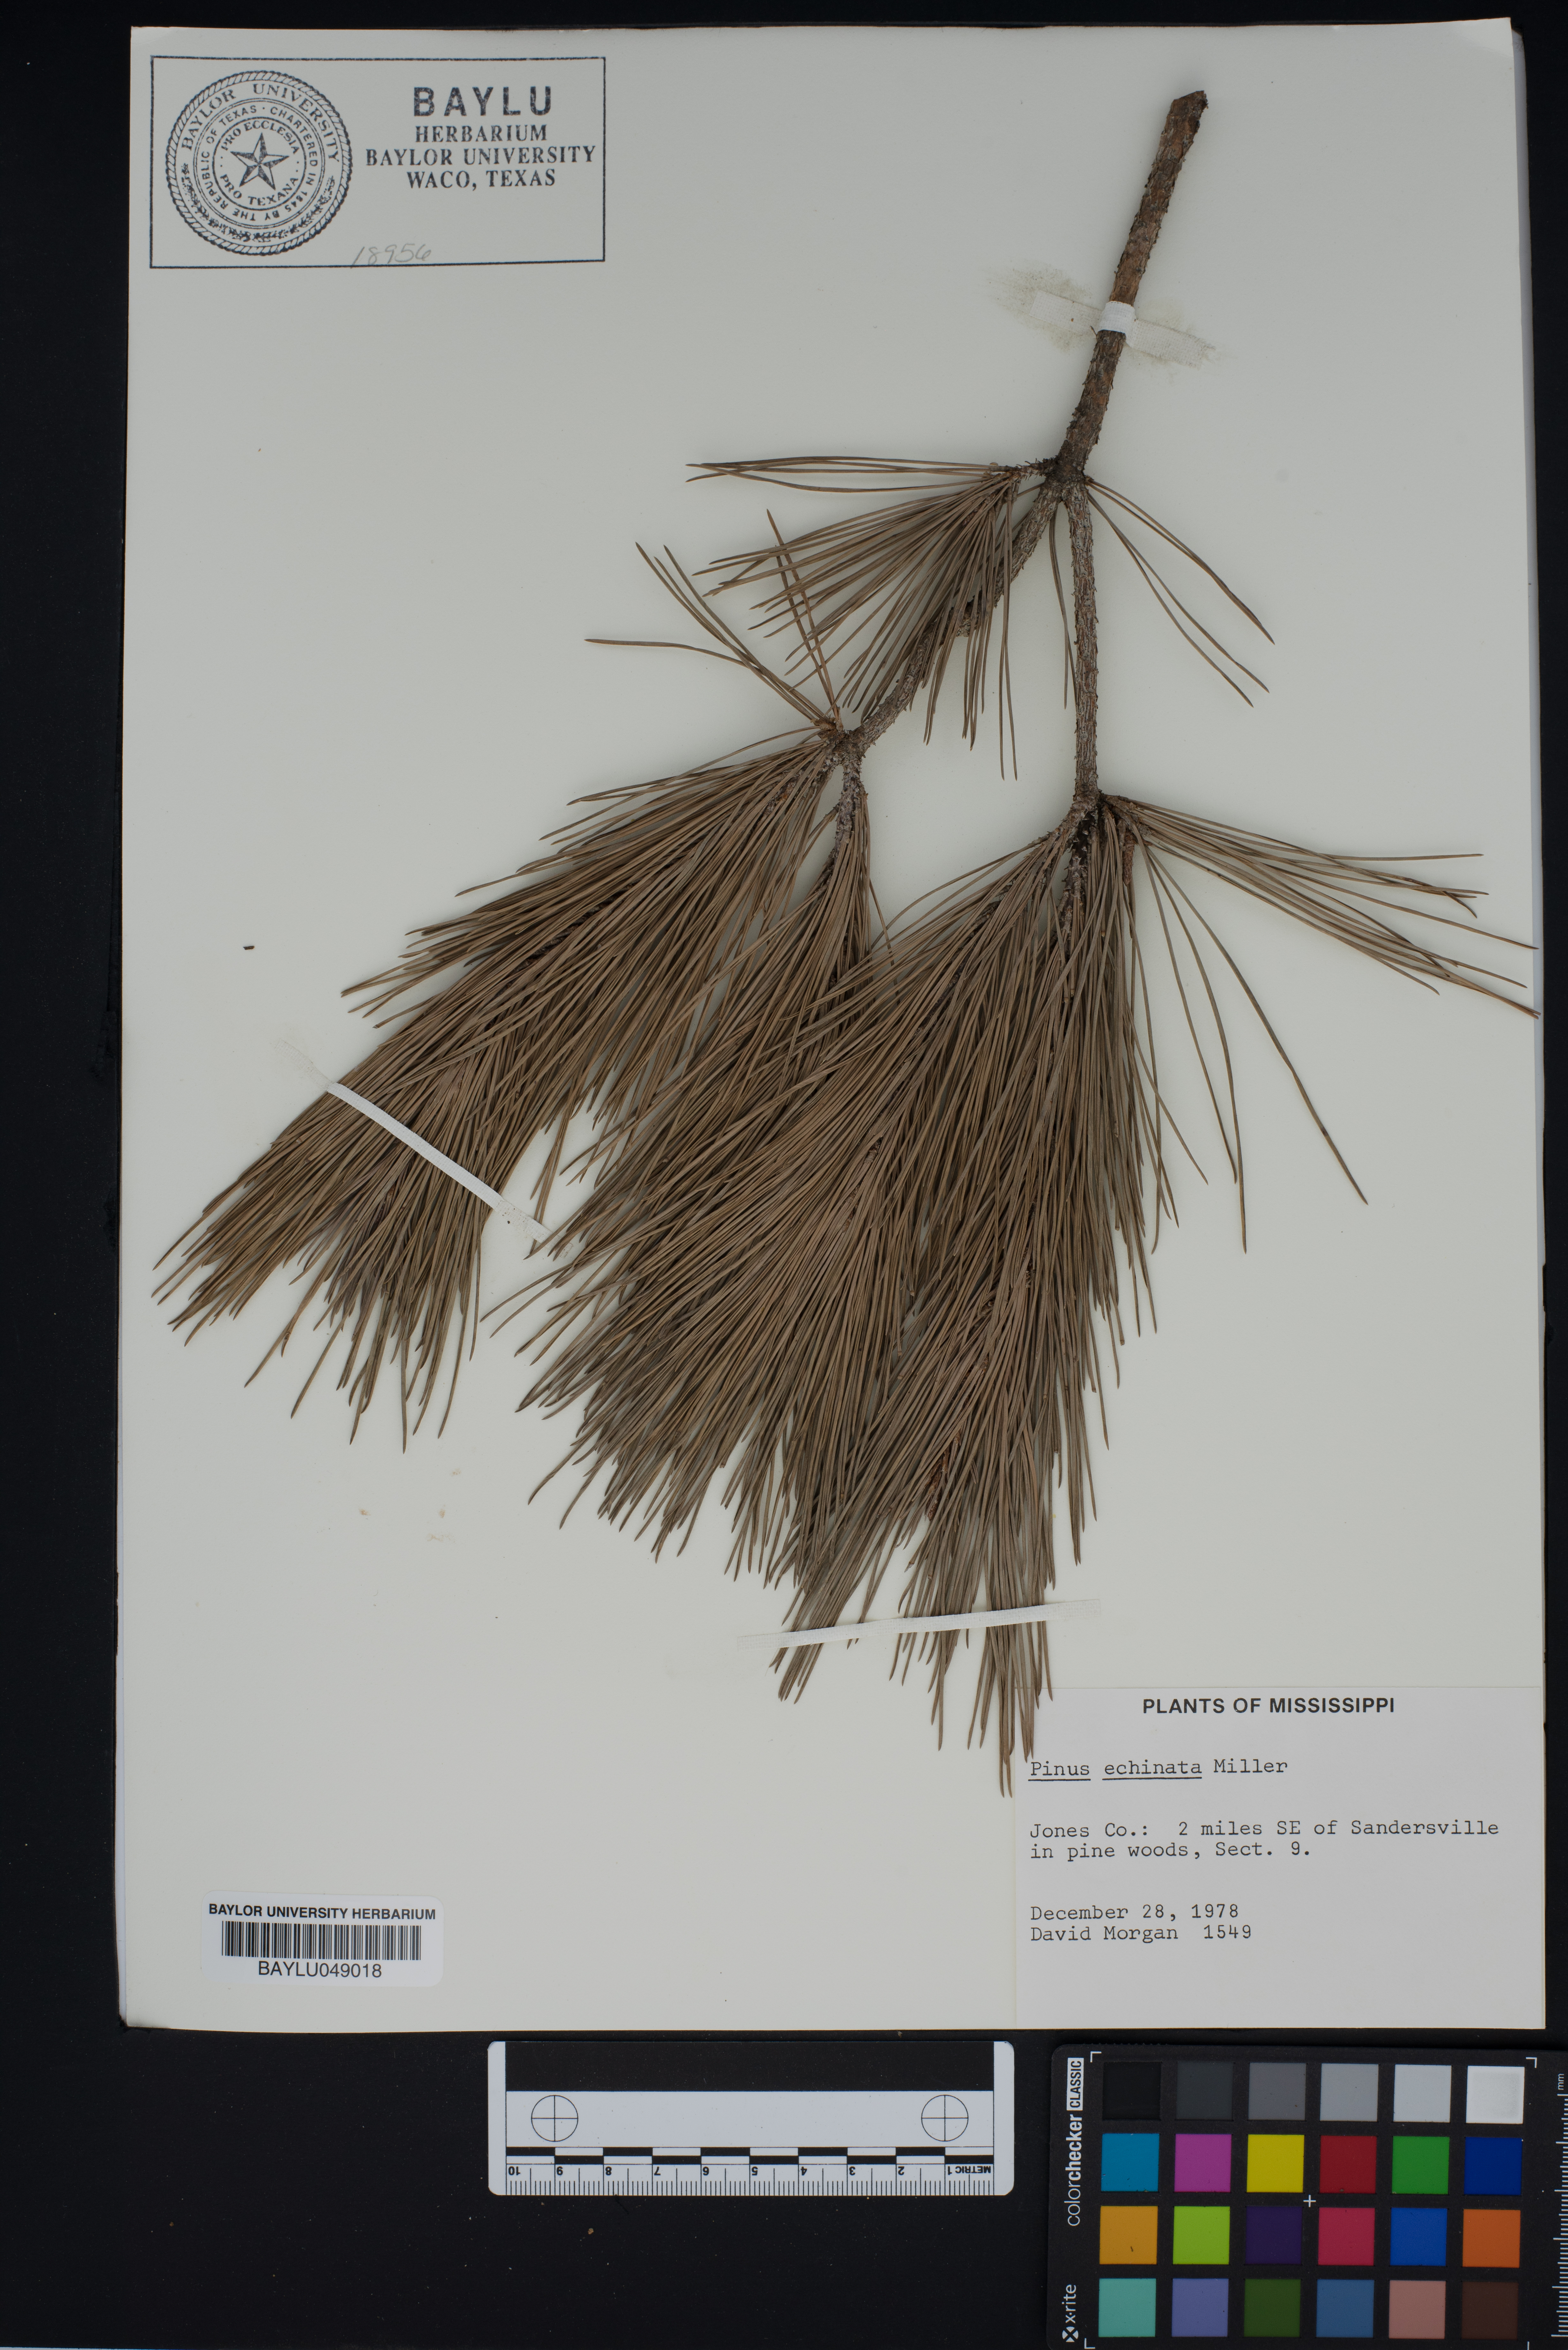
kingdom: Plantae
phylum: Tracheophyta
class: Pinopsida
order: Pinales
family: Pinaceae
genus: Pinus
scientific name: Pinus echinata
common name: Shortleaf pine
